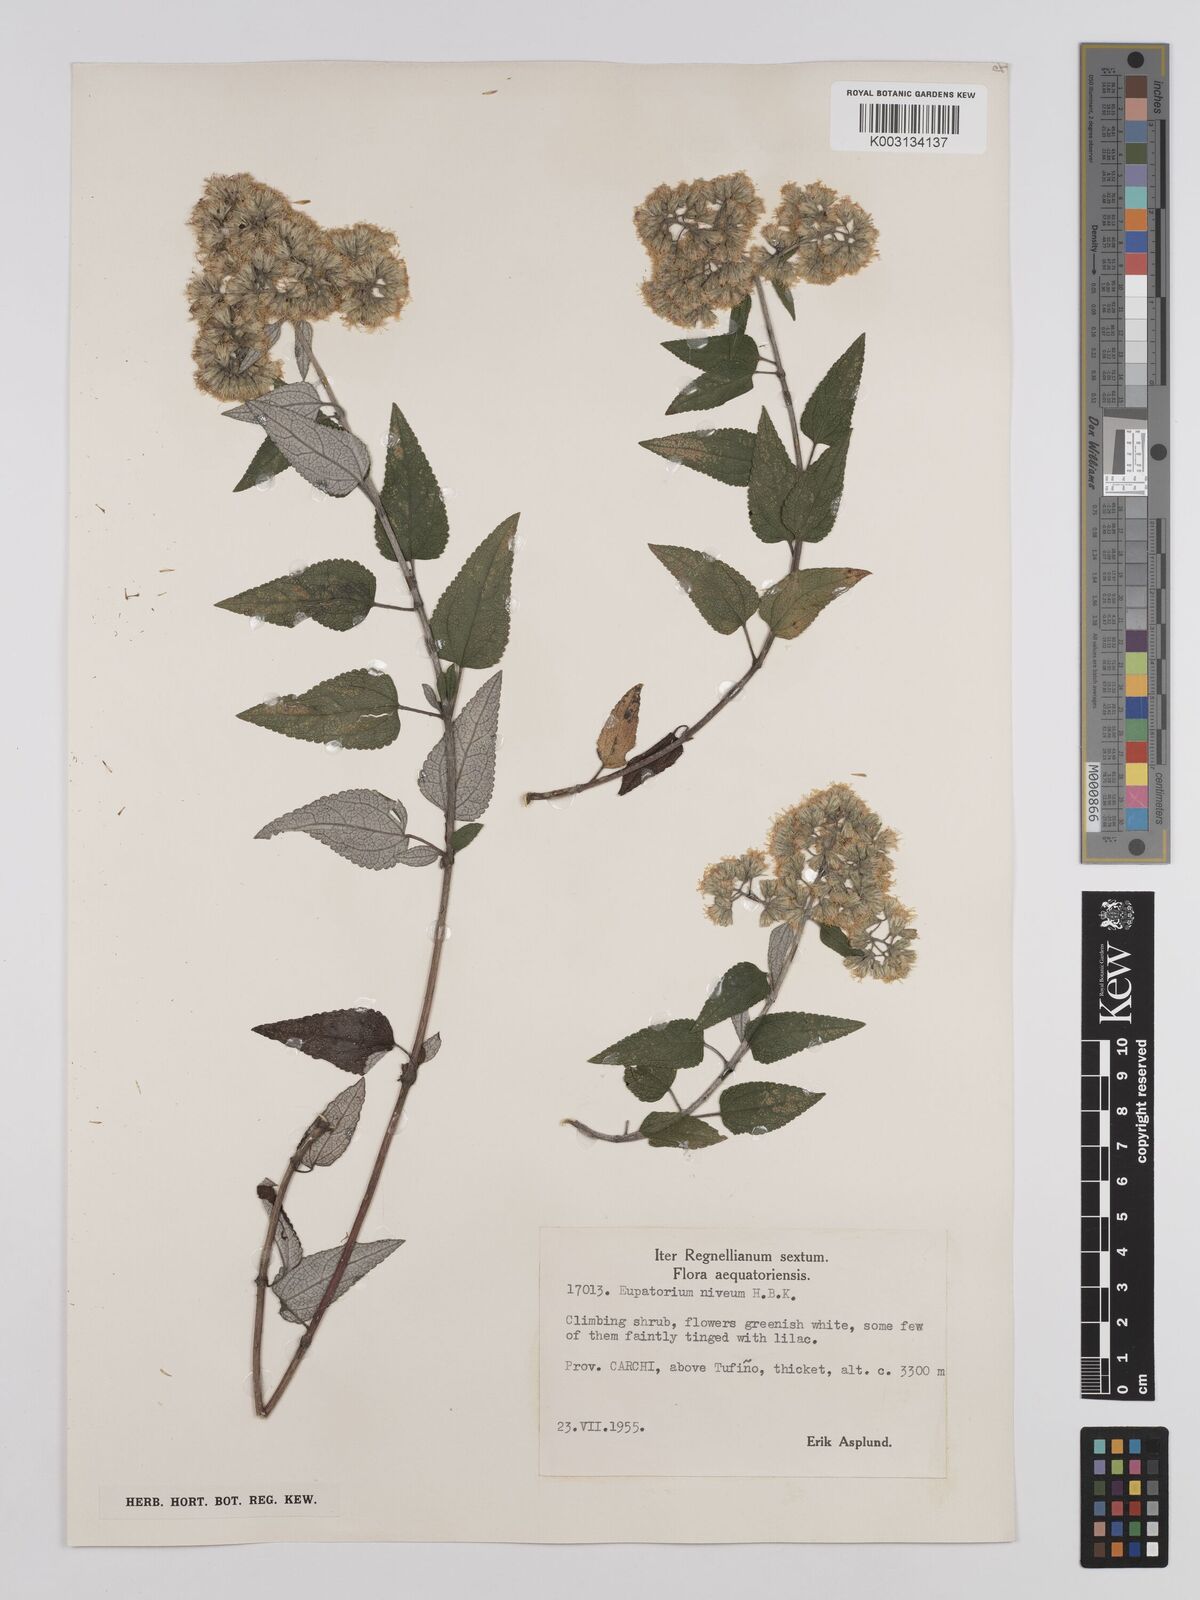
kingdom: Plantae
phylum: Tracheophyta
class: Magnoliopsida
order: Asterales
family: Asteraceae
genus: Cronquistianthus
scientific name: Cronquistianthus niveus
